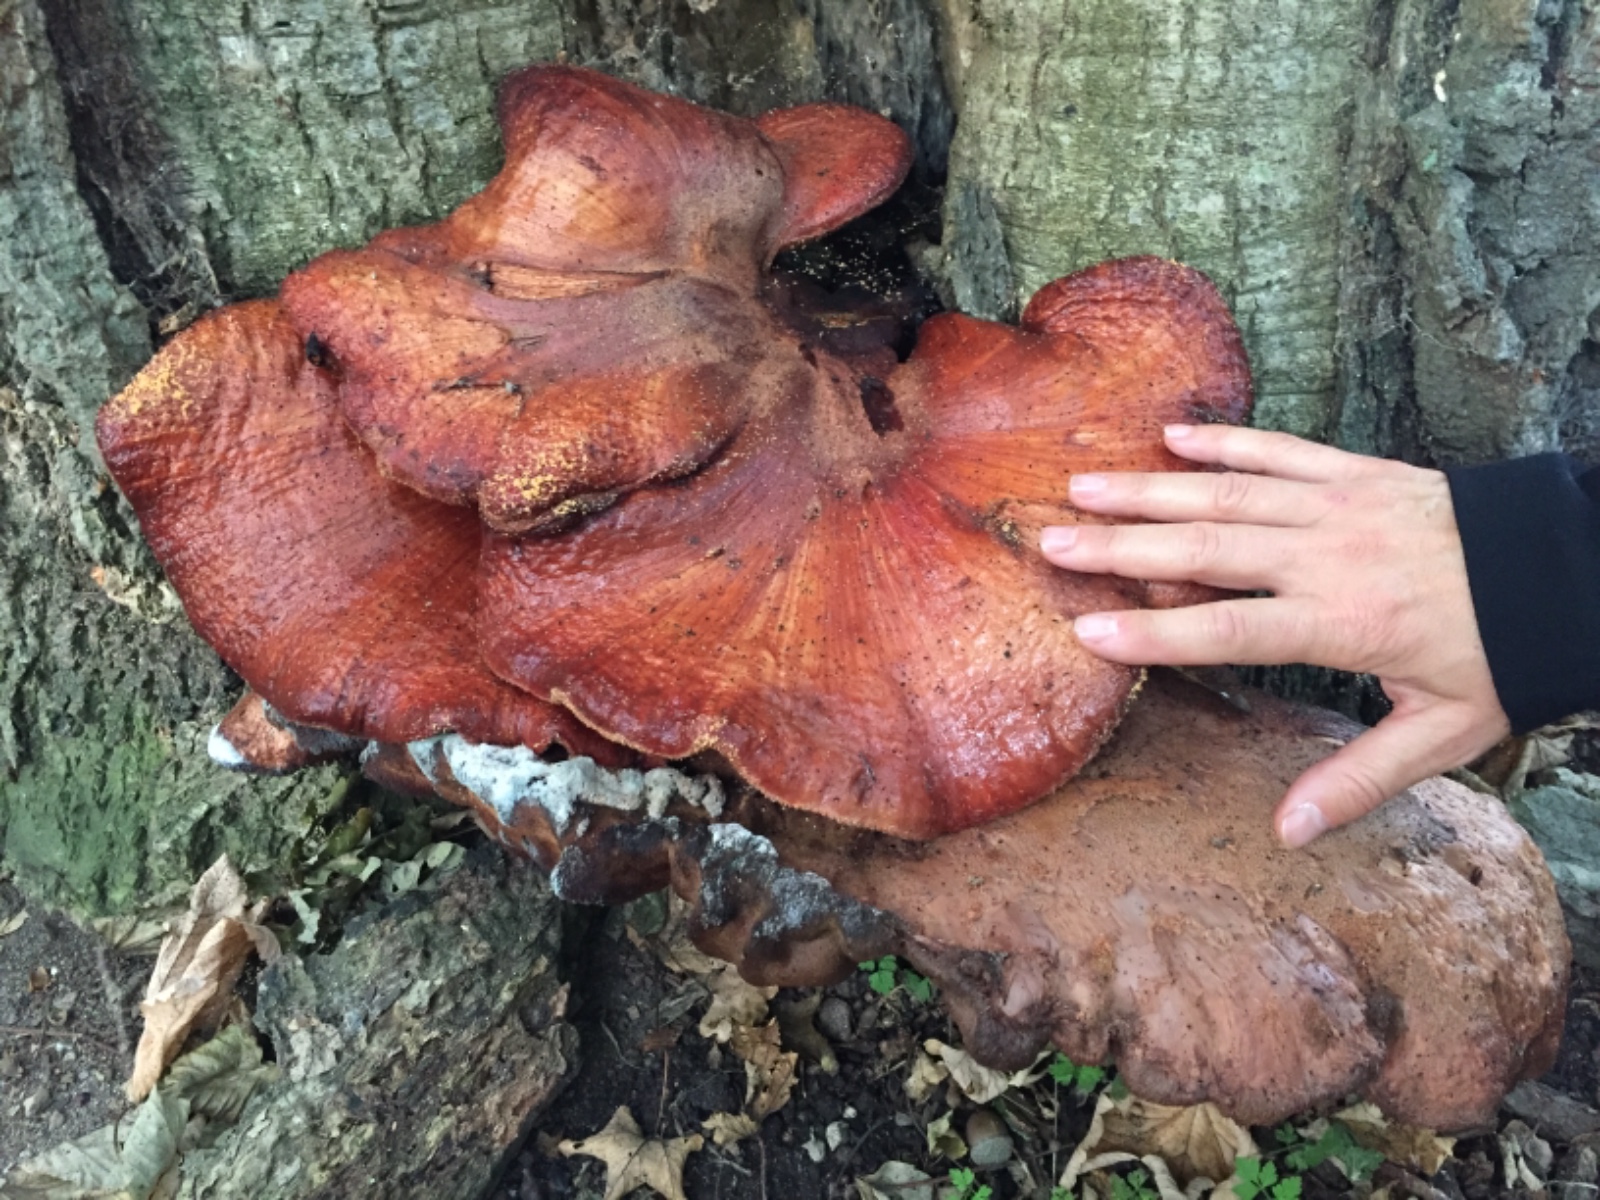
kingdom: Fungi
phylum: Basidiomycota
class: Agaricomycetes
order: Agaricales
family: Fistulinaceae
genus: Fistulina
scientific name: Fistulina hepatica
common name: oksetunge
